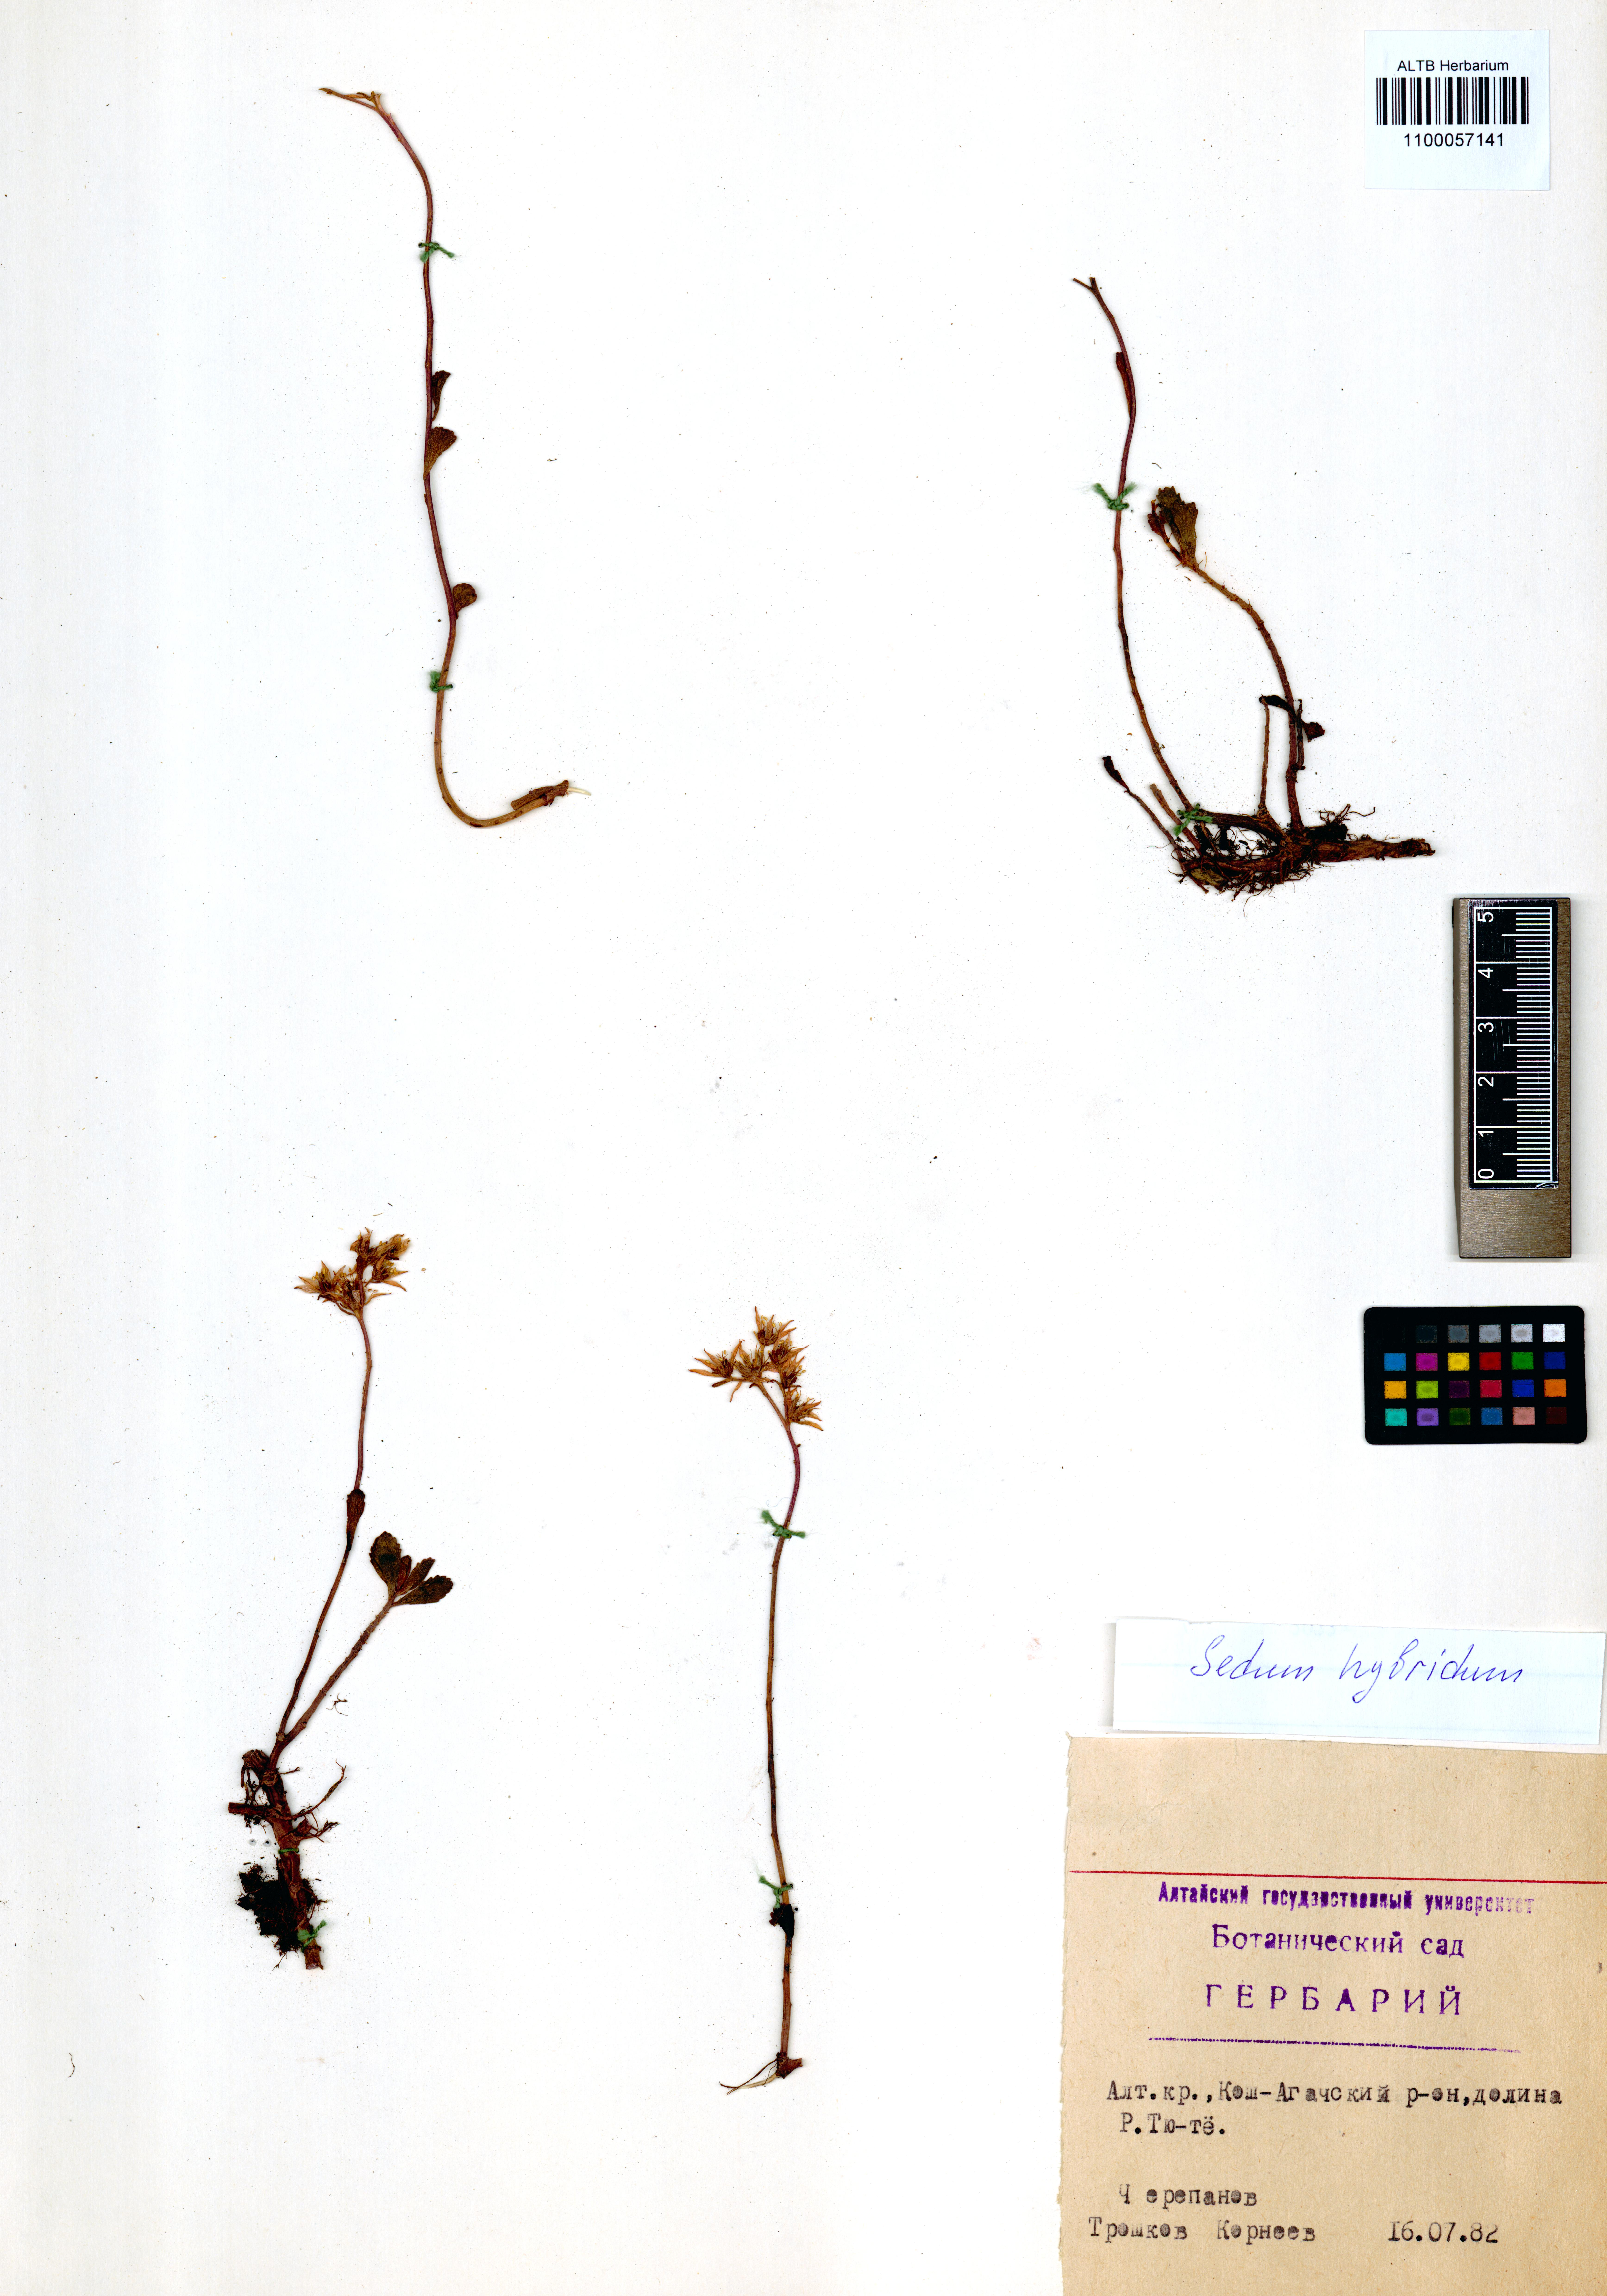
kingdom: Plantae
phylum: Tracheophyta
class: Magnoliopsida
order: Saxifragales
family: Crassulaceae
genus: Phedimus
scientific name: Phedimus hybridus
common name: Hybrid stonecrop
